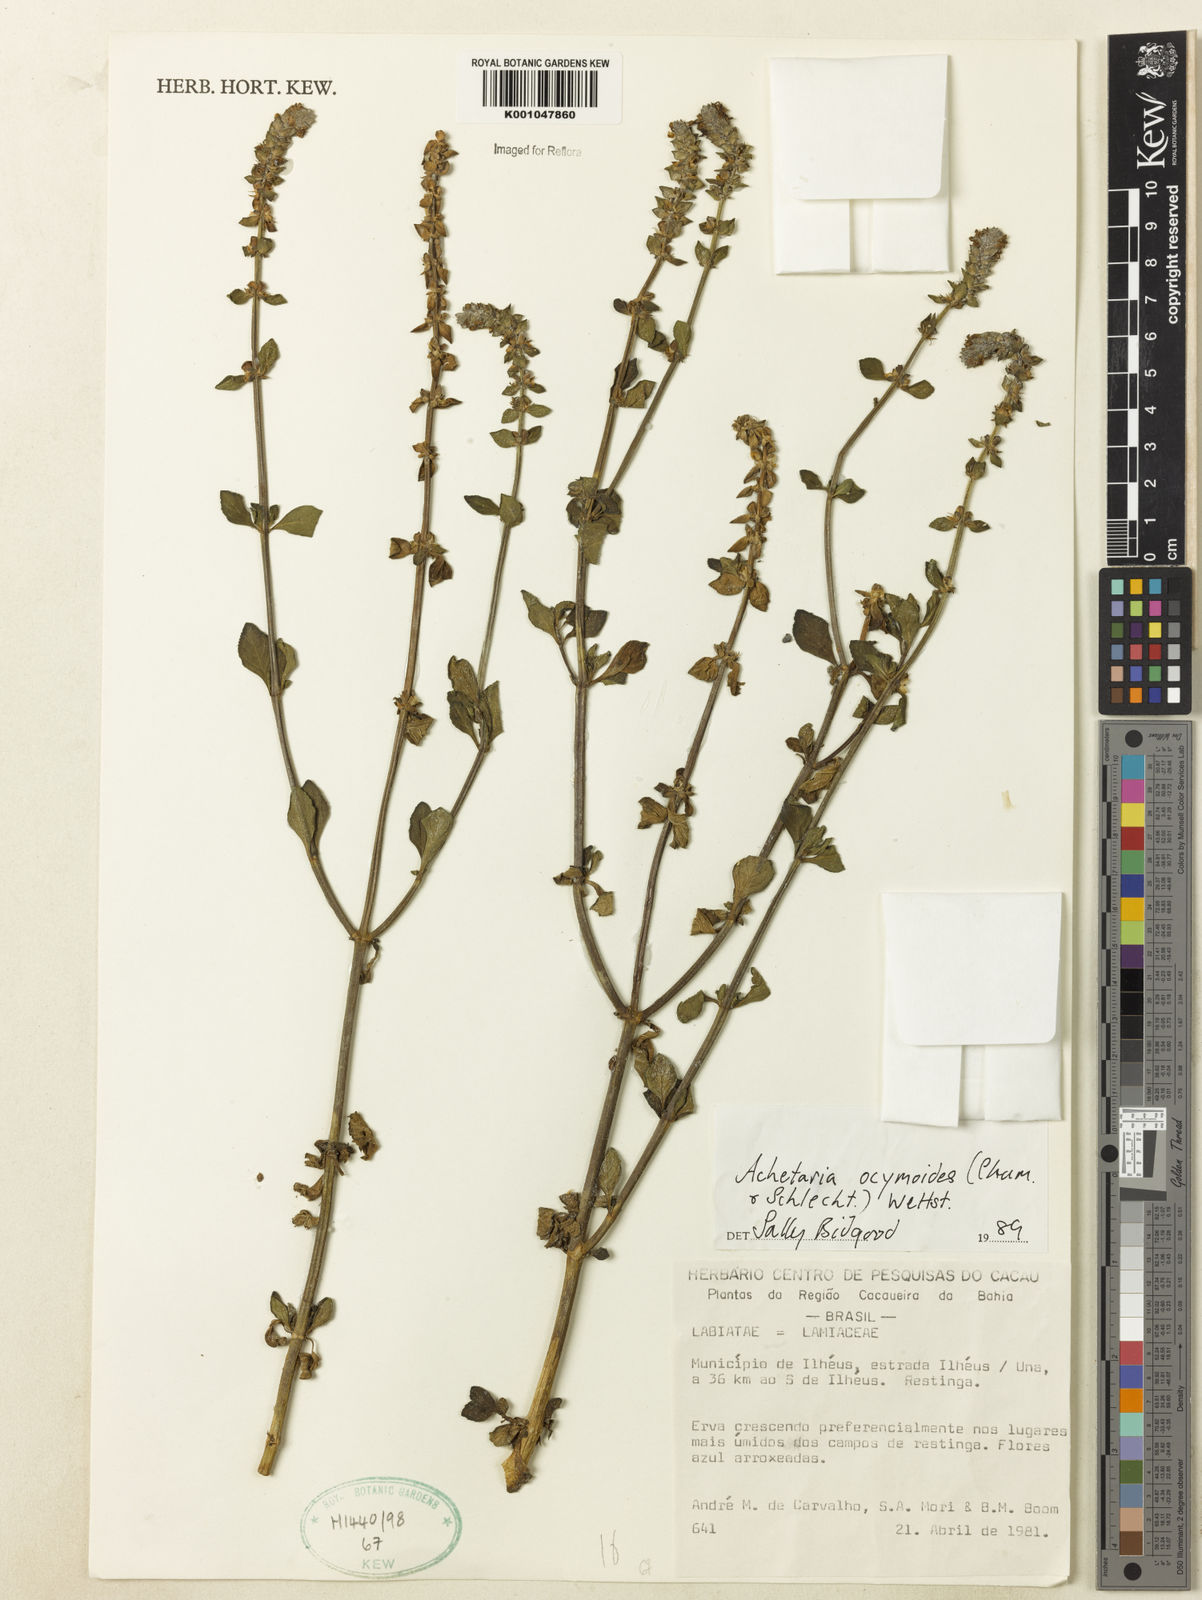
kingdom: Plantae
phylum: Tracheophyta
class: Magnoliopsida
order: Lamiales
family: Plantaginaceae
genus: Matourea
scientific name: Matourea ocymoides
